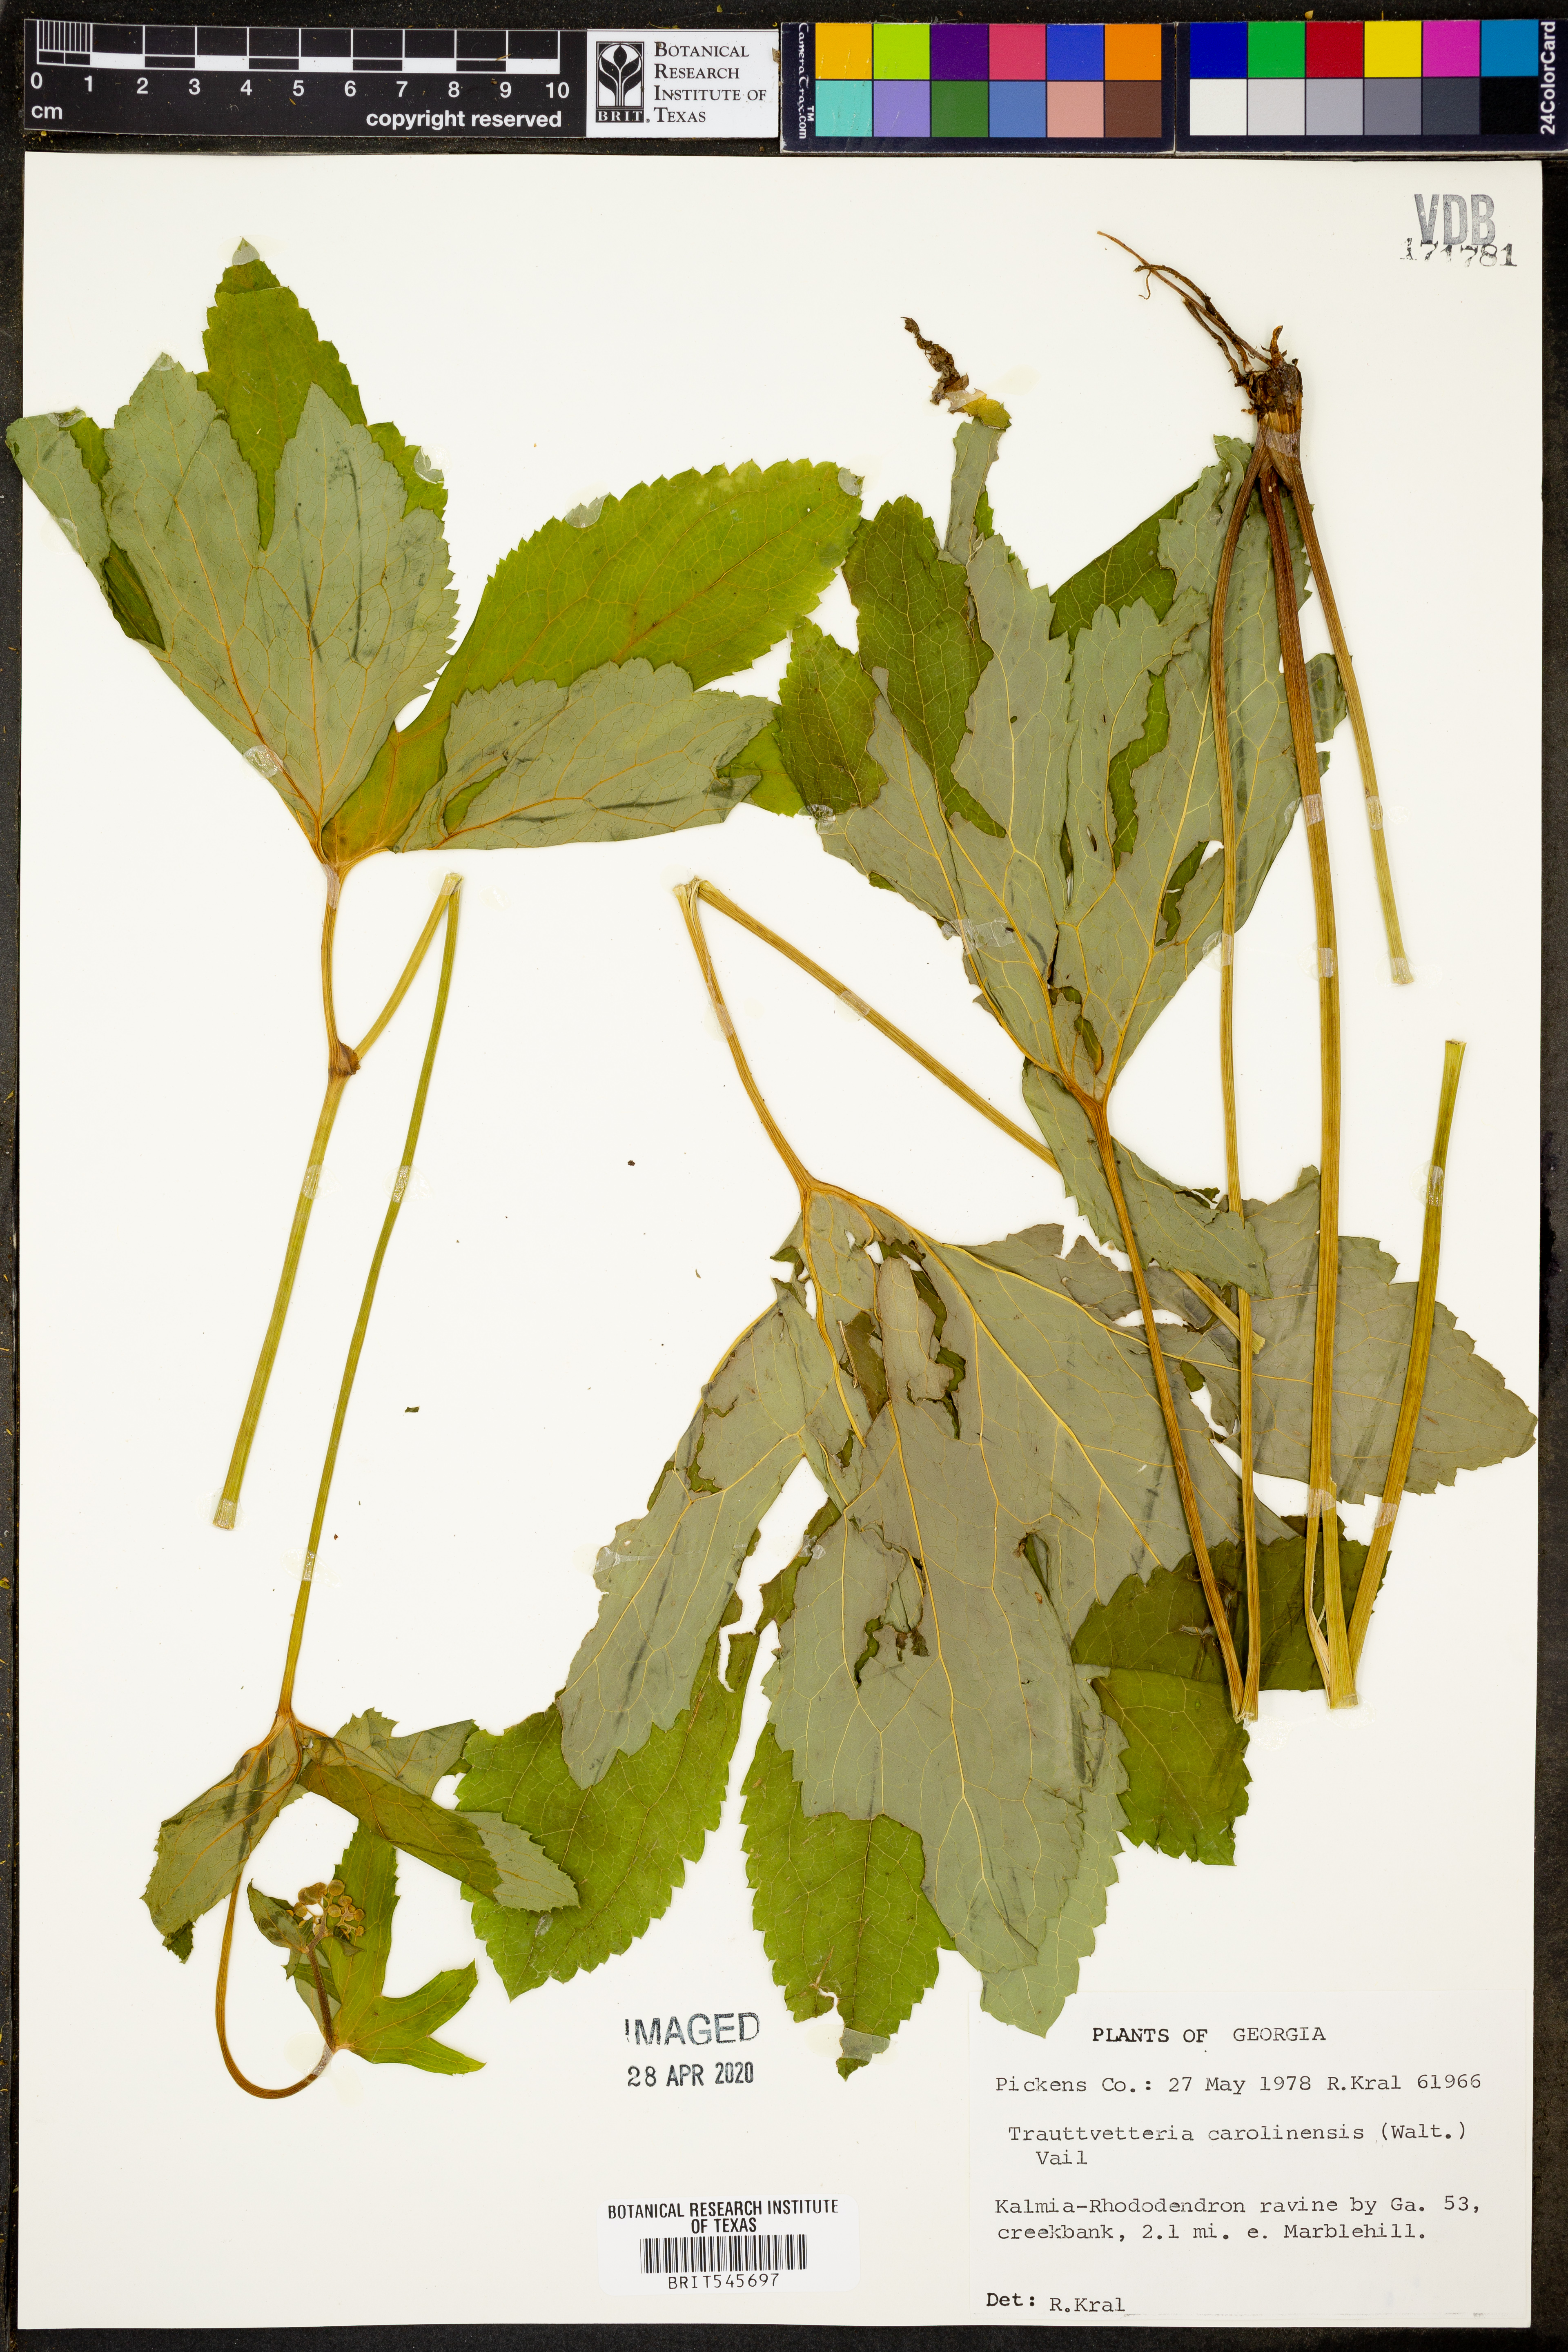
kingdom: Plantae
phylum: Tracheophyta
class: Magnoliopsida
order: Ranunculales
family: Ranunculaceae
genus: Trautvetteria
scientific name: Trautvetteria carolinensis
